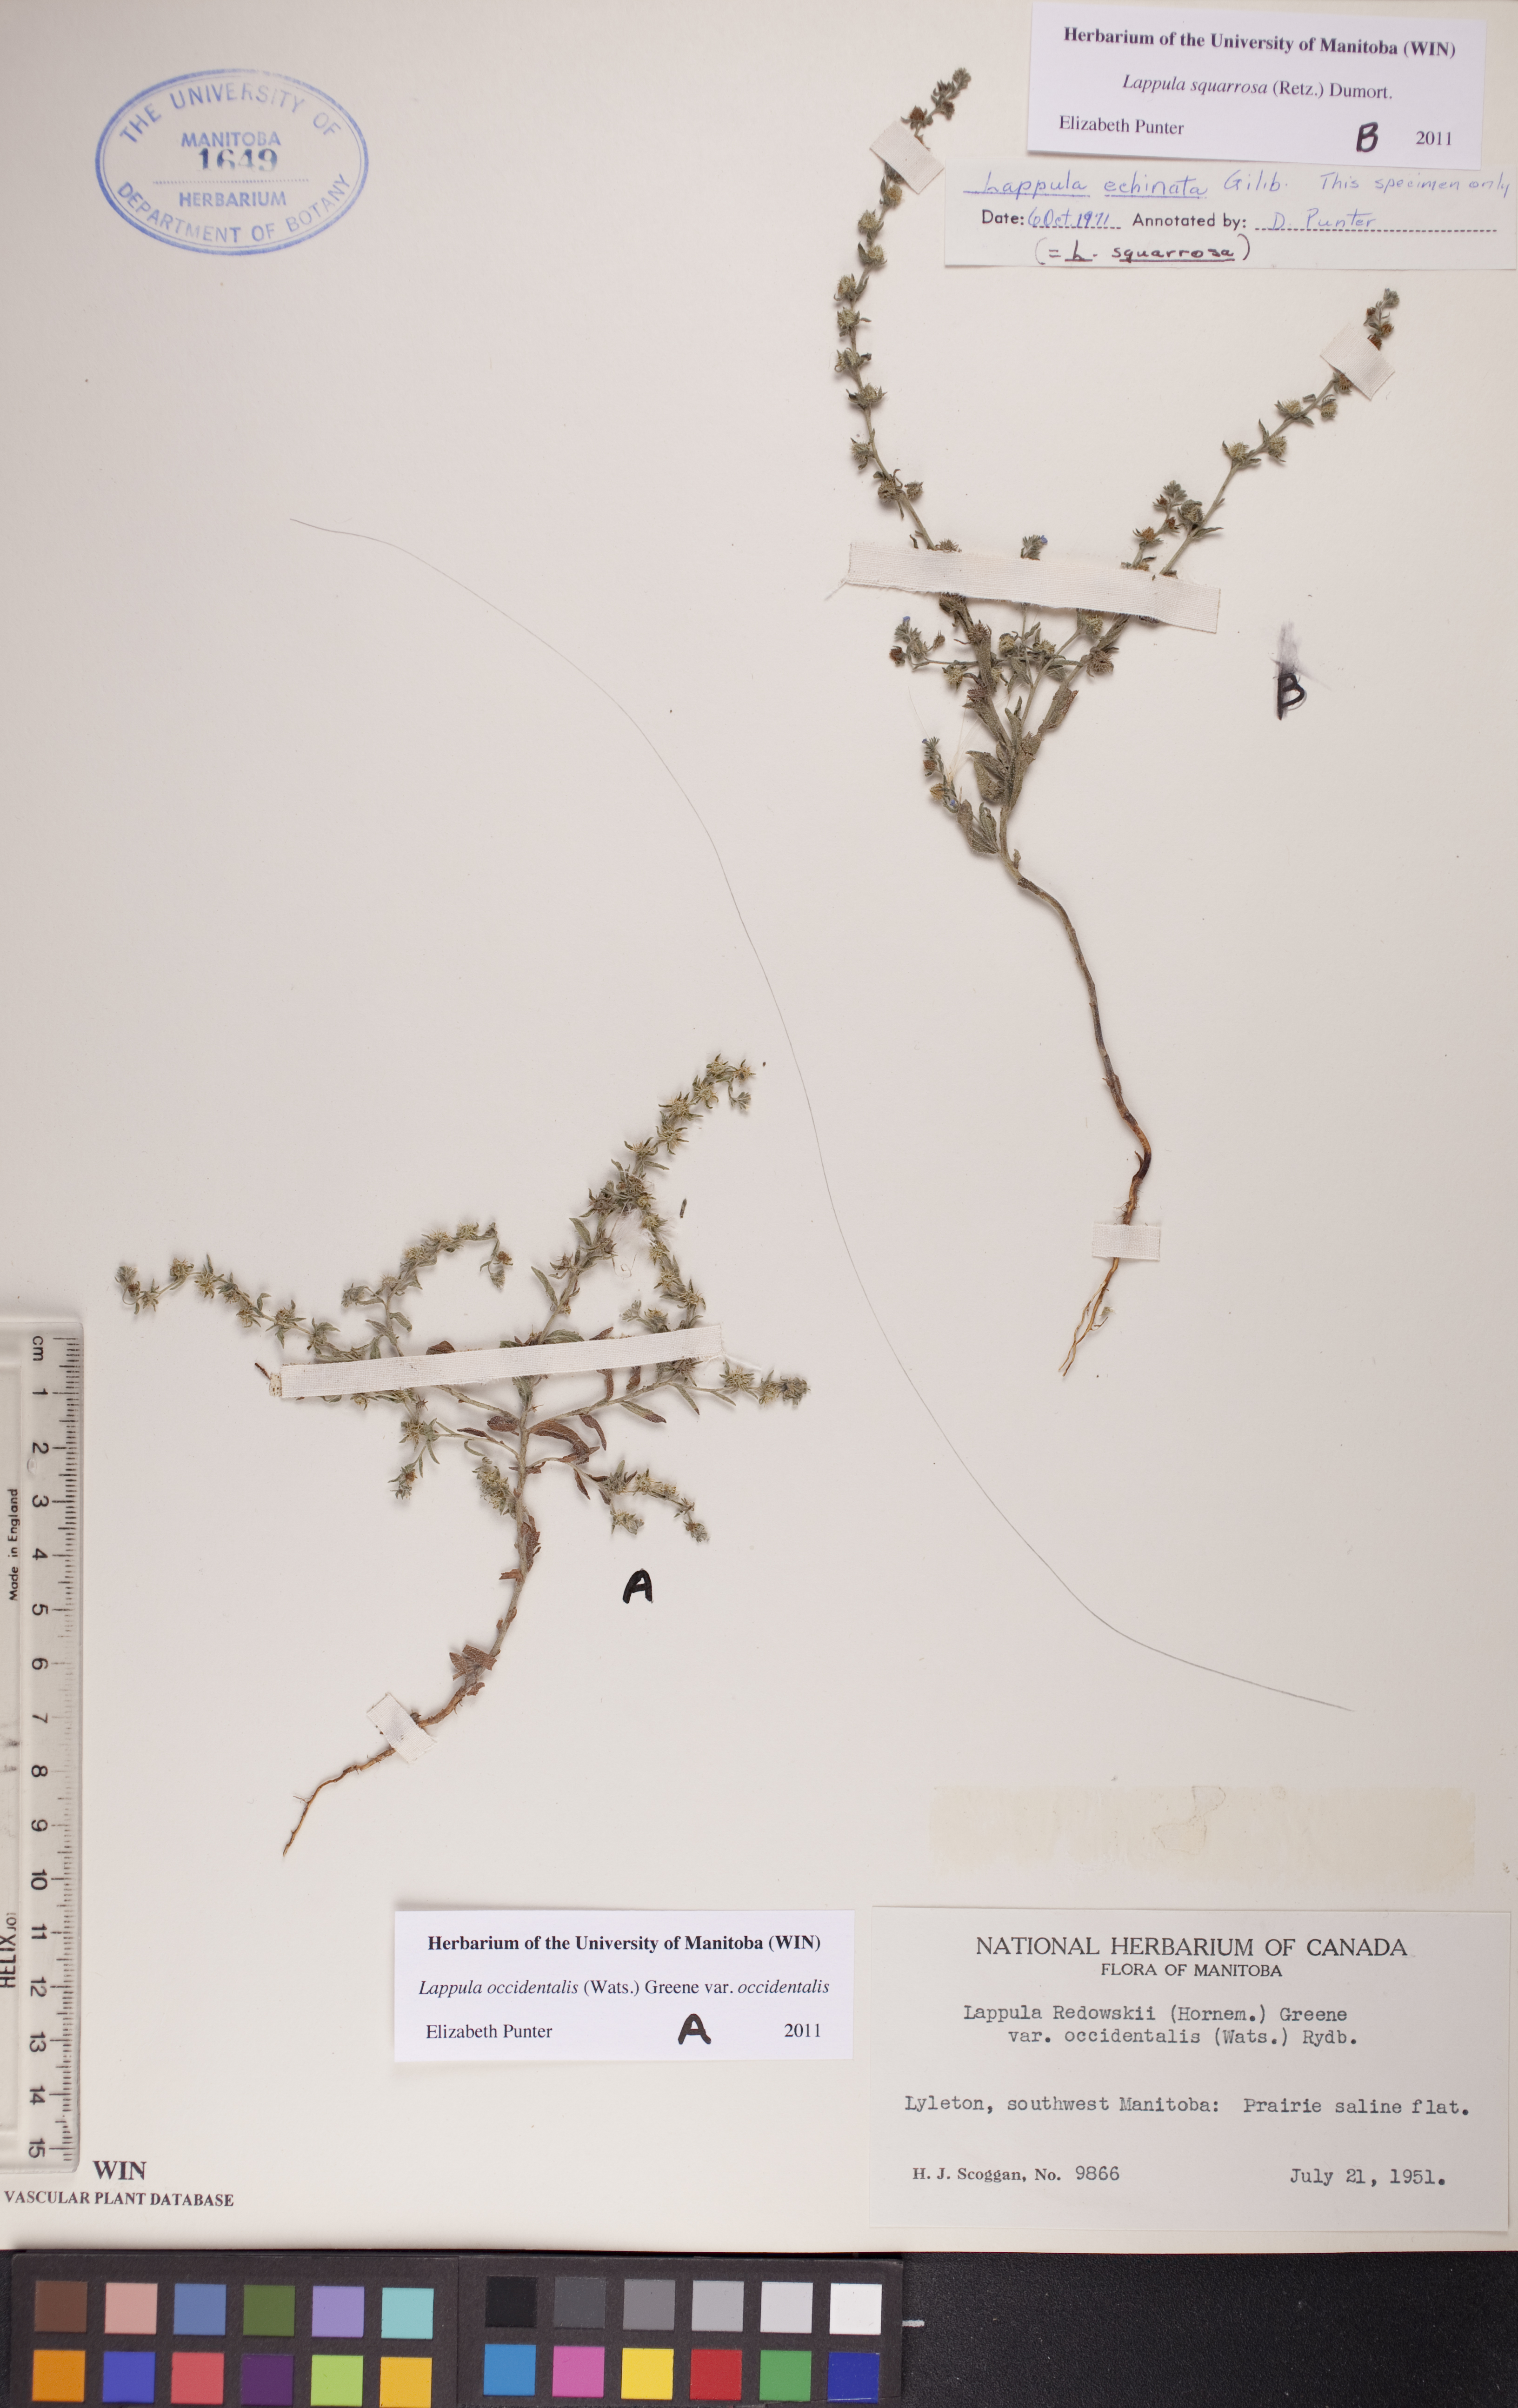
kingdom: Plantae
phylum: Tracheophyta
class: Magnoliopsida
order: Boraginales
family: Boraginaceae
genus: Lappula
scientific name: Lappula occidentalis
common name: Western stickseed
